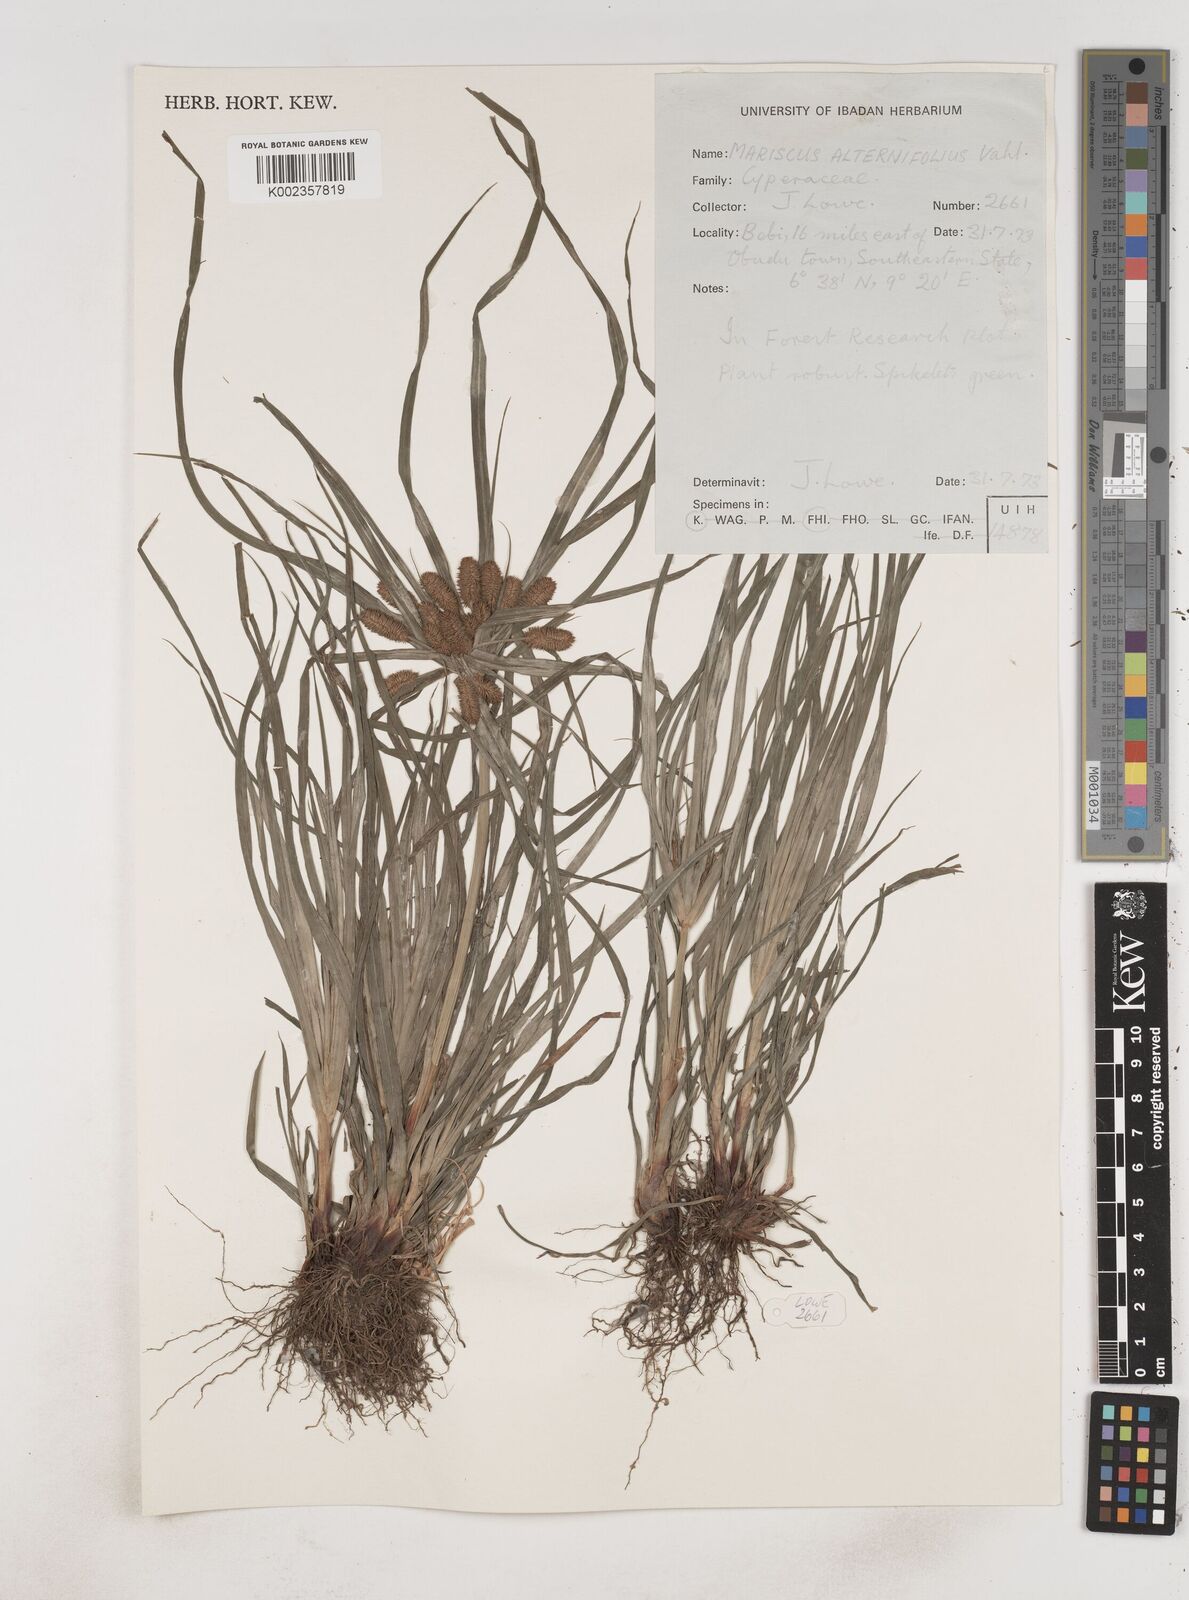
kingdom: Plantae
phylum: Tracheophyta
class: Liliopsida
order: Poales
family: Cyperaceae
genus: Cyperus
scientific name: Cyperus sublimis
